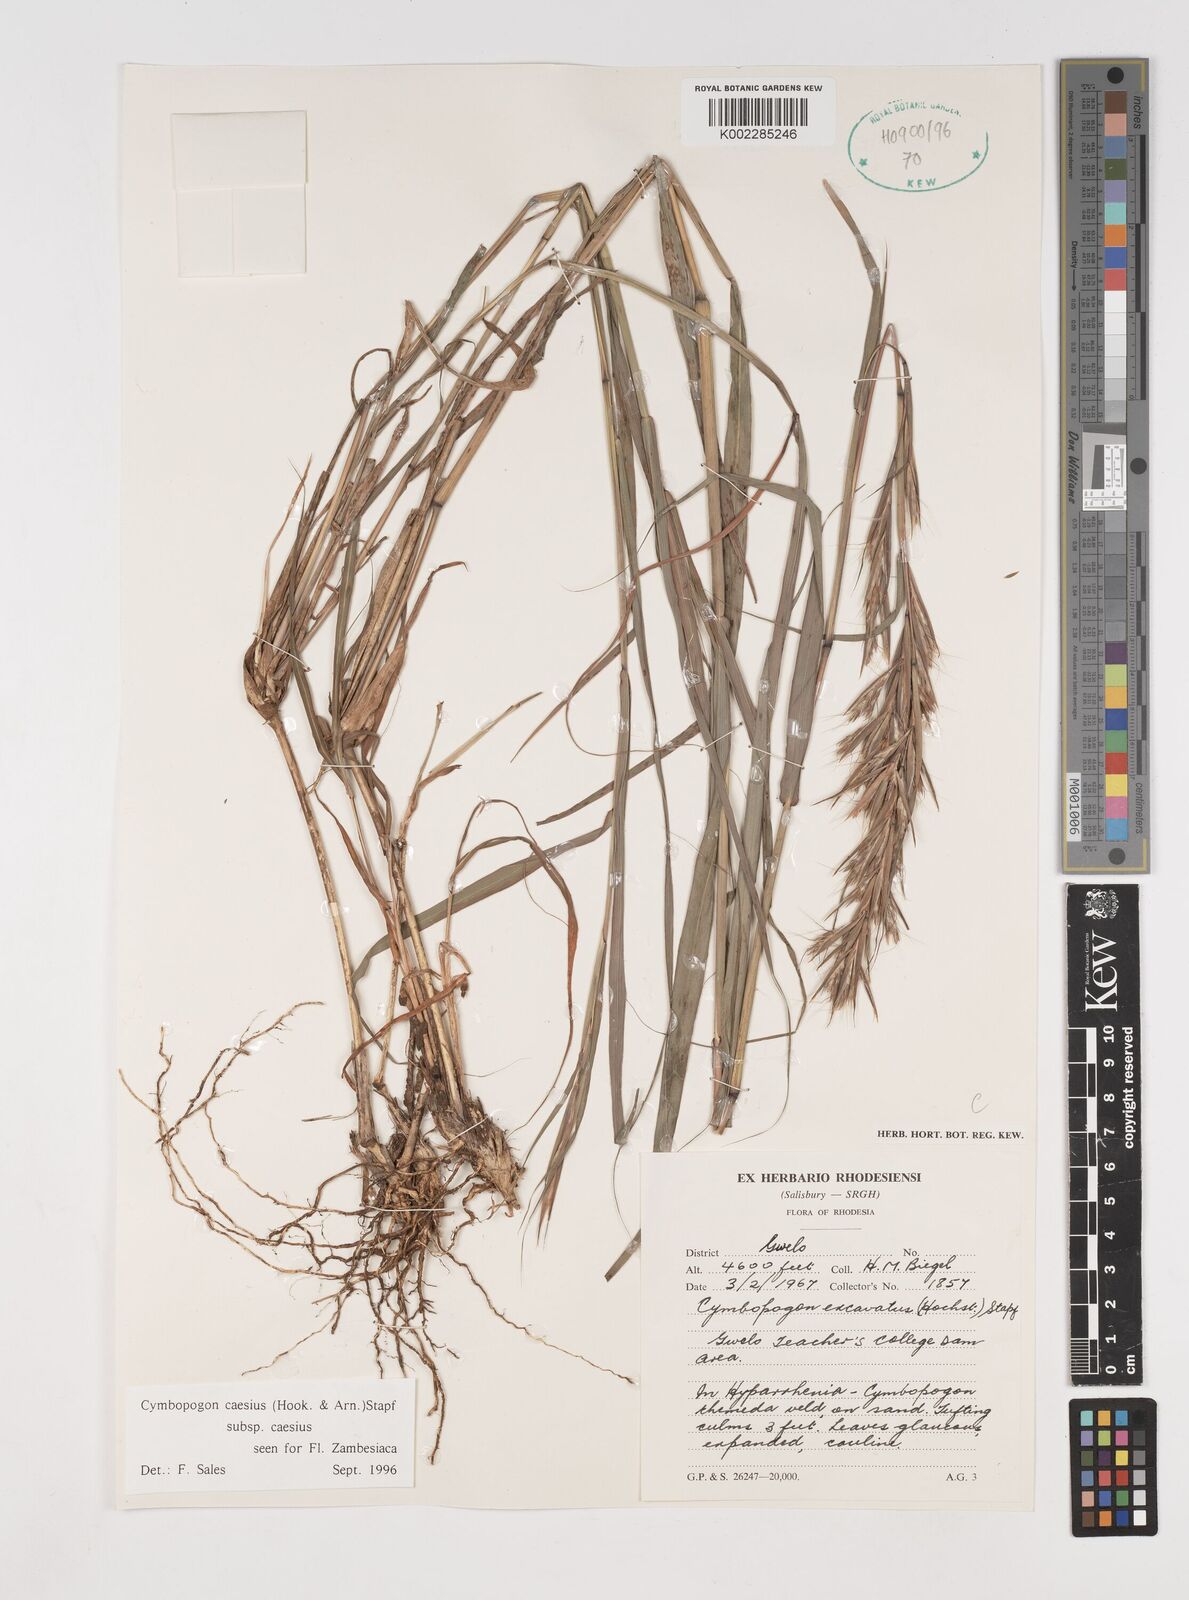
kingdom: Plantae
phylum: Tracheophyta
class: Liliopsida
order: Poales
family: Poaceae
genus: Cymbopogon
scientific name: Cymbopogon caesius
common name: Kachi grass
